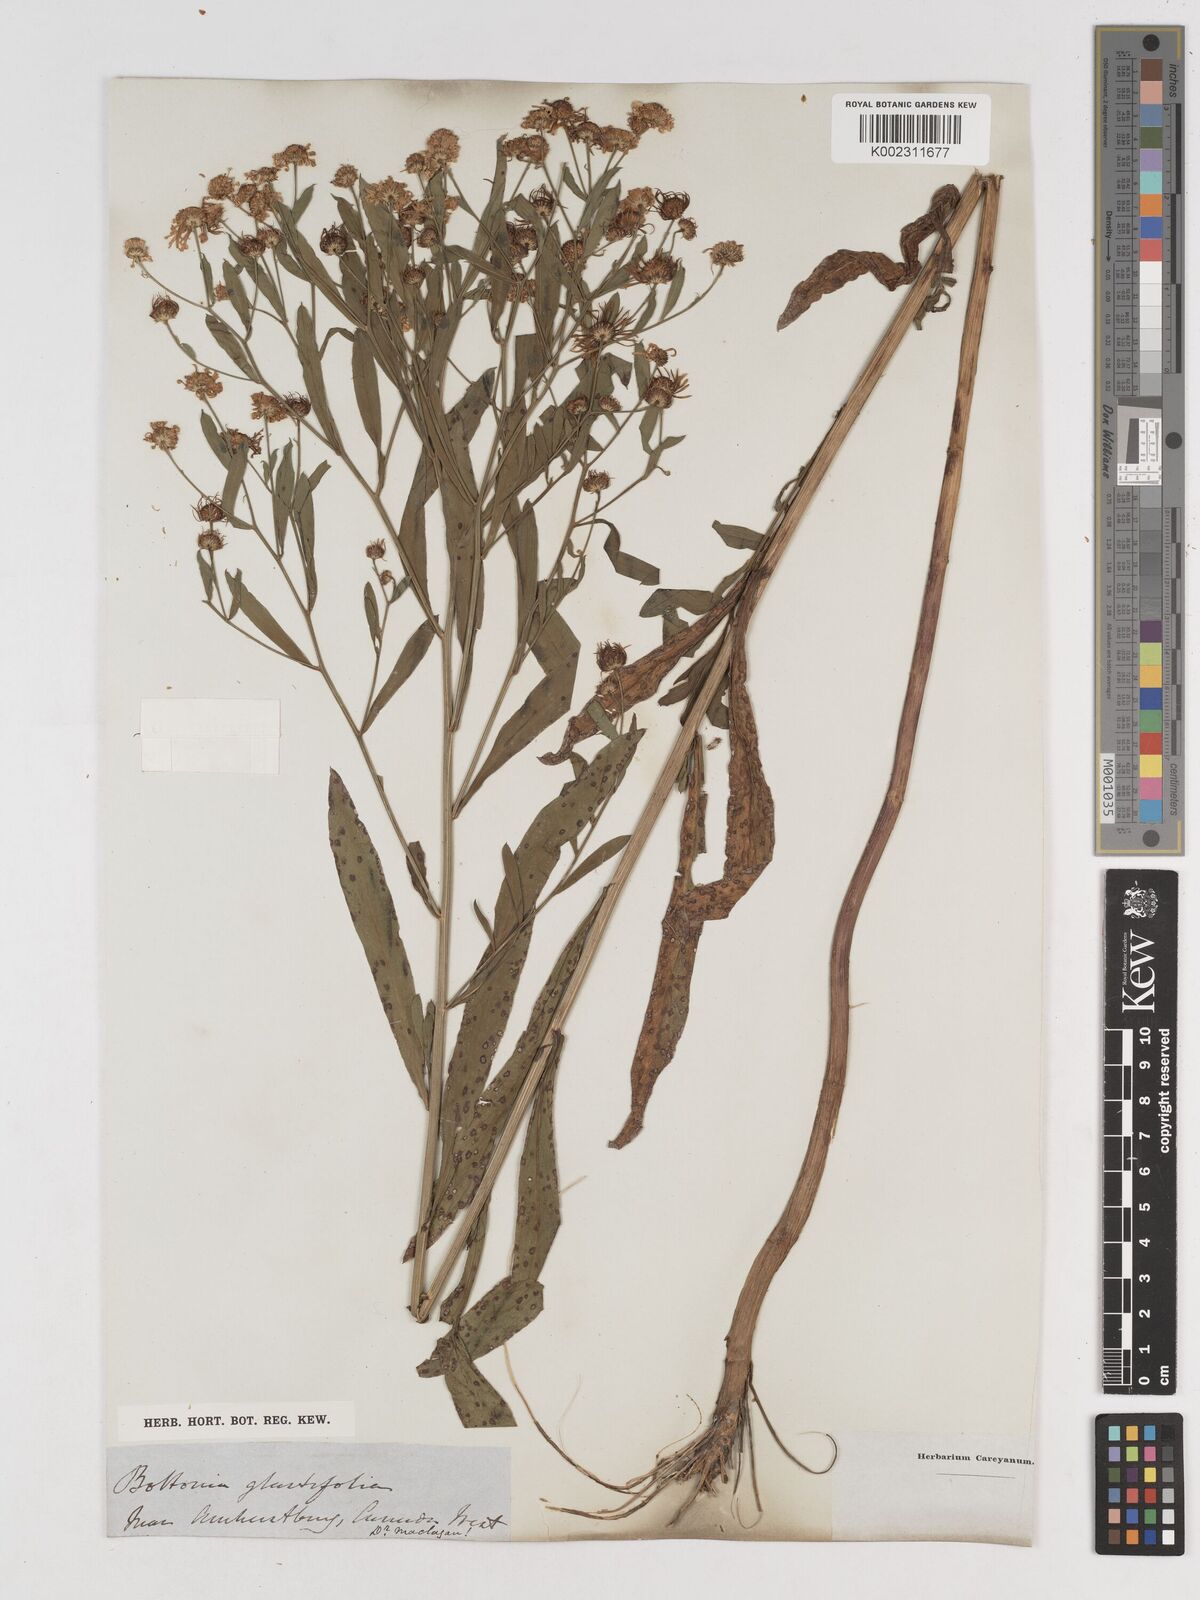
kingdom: Plantae
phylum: Tracheophyta
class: Magnoliopsida
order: Asterales
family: Asteraceae
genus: Boltonia
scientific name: Boltonia glastifolia
